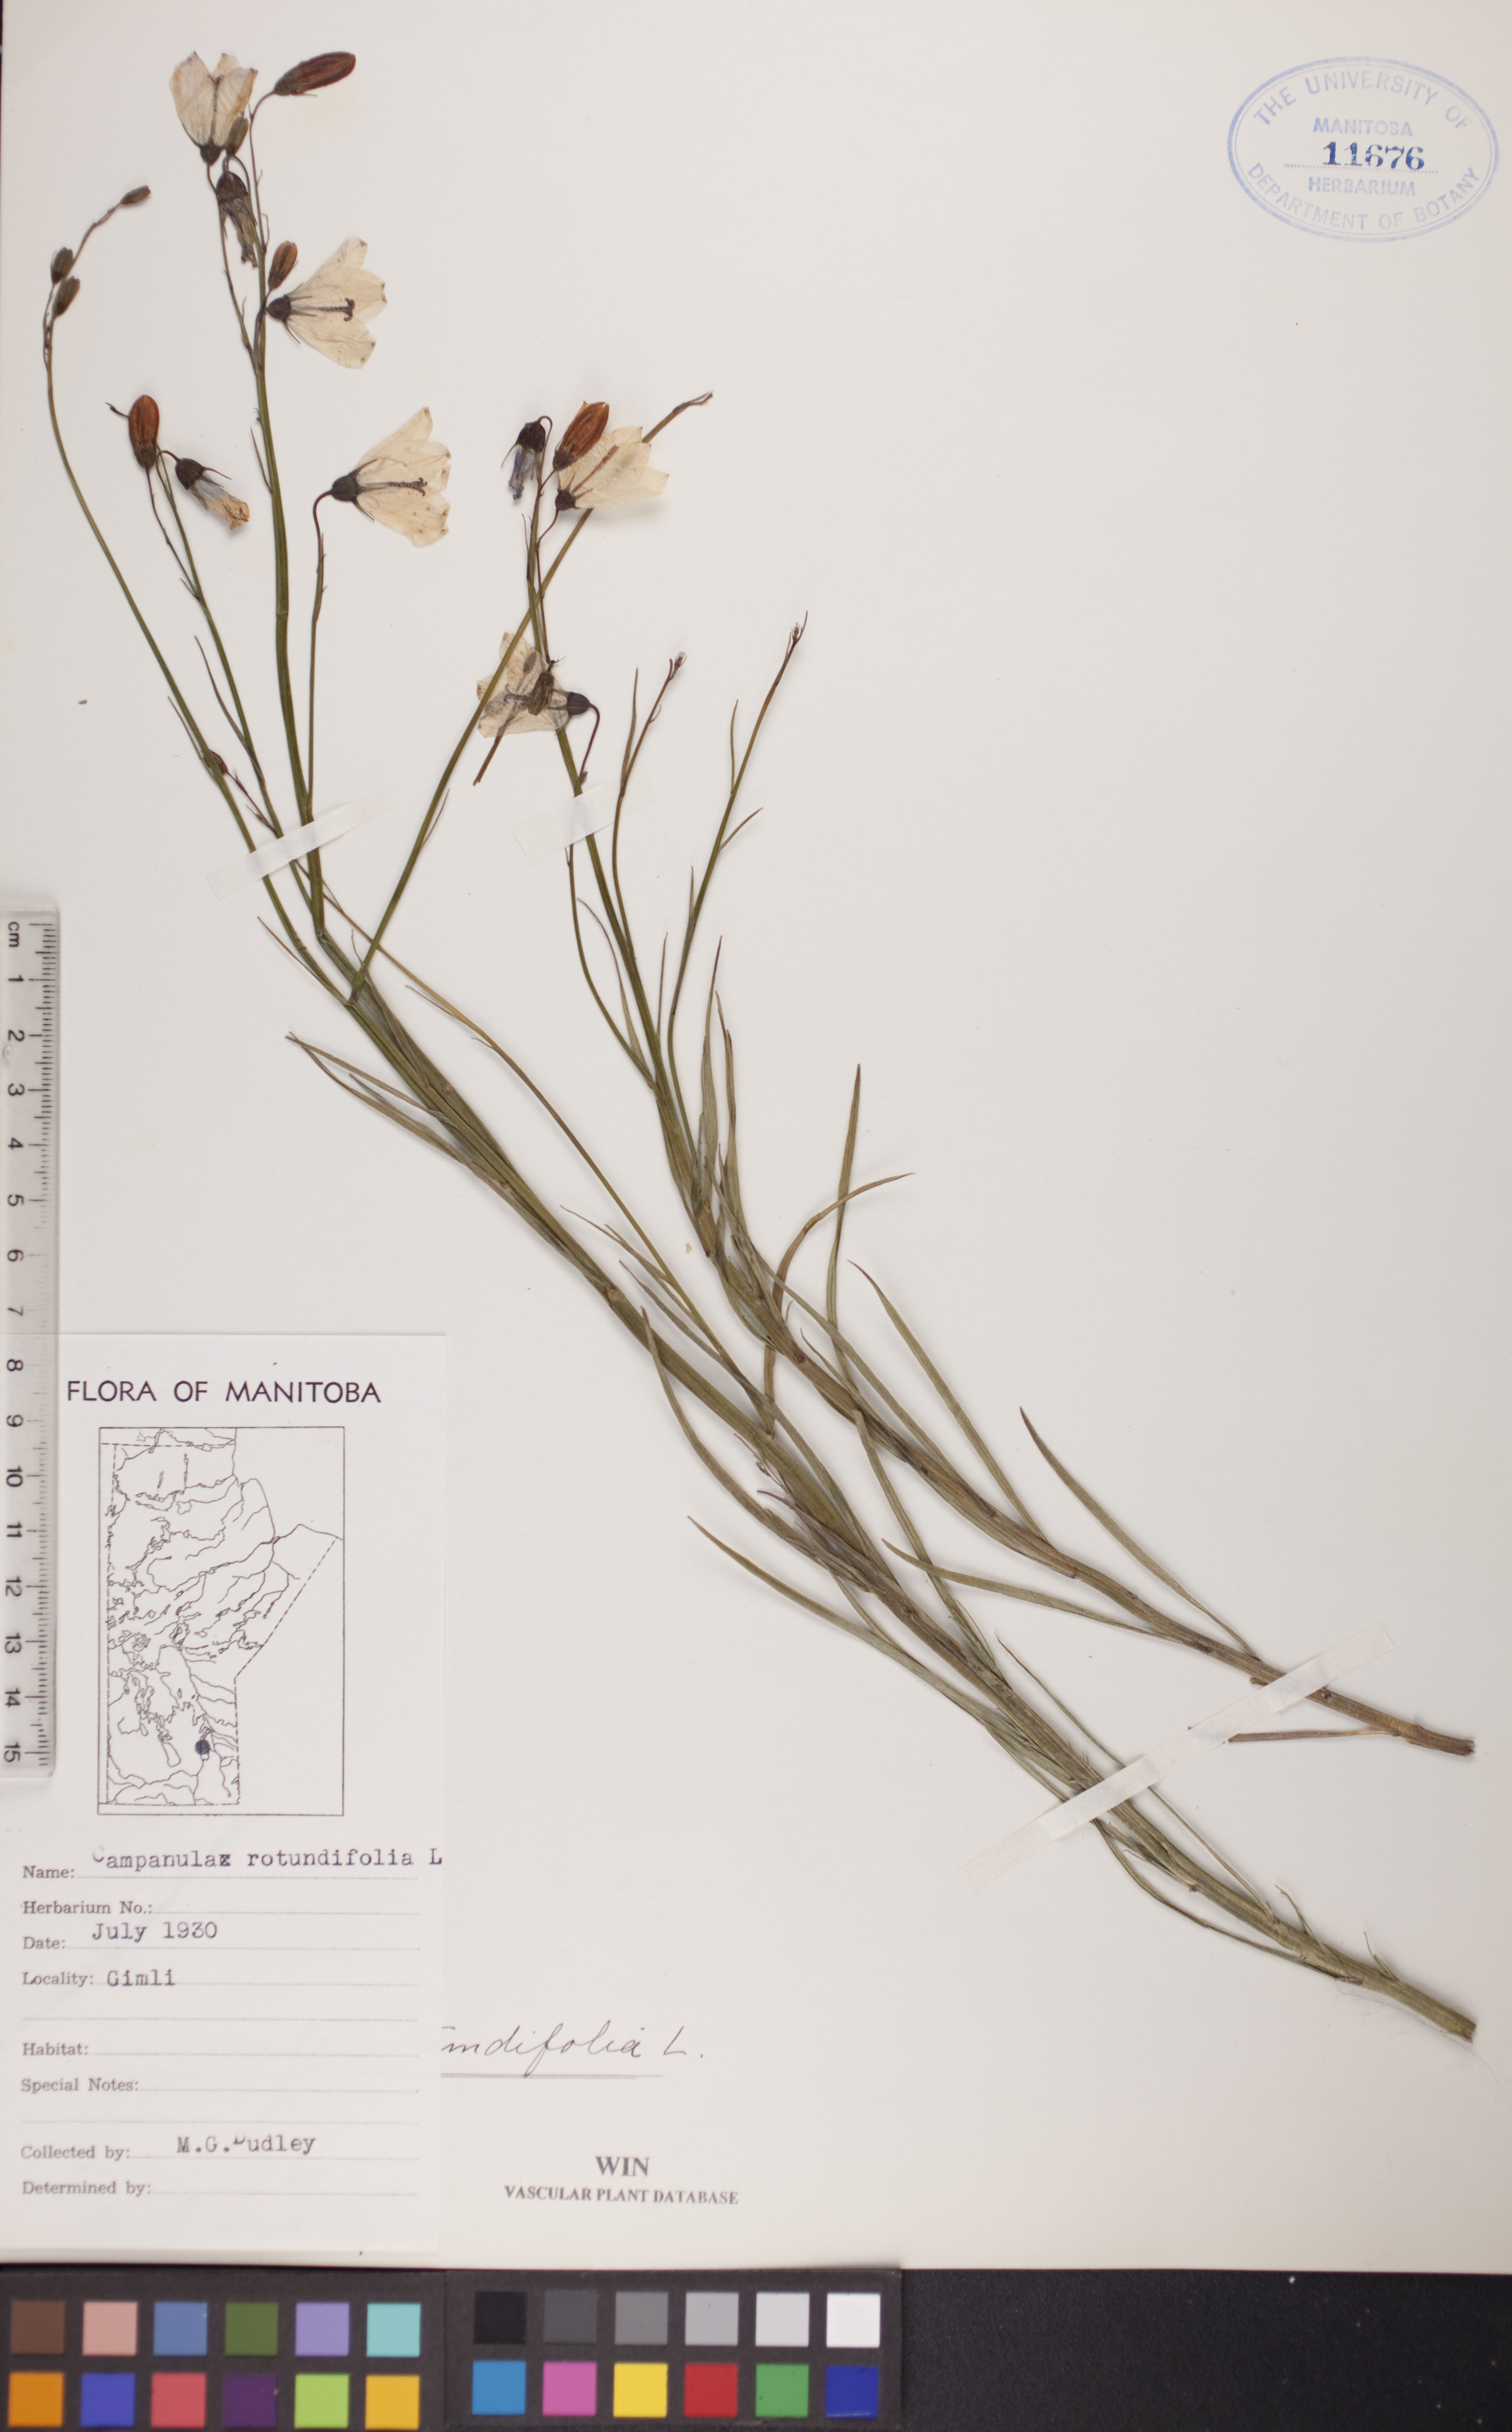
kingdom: Plantae
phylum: Tracheophyta
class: Magnoliopsida
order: Asterales
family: Campanulaceae
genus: Campanula
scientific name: Campanula rotundifolia
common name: Harebell
